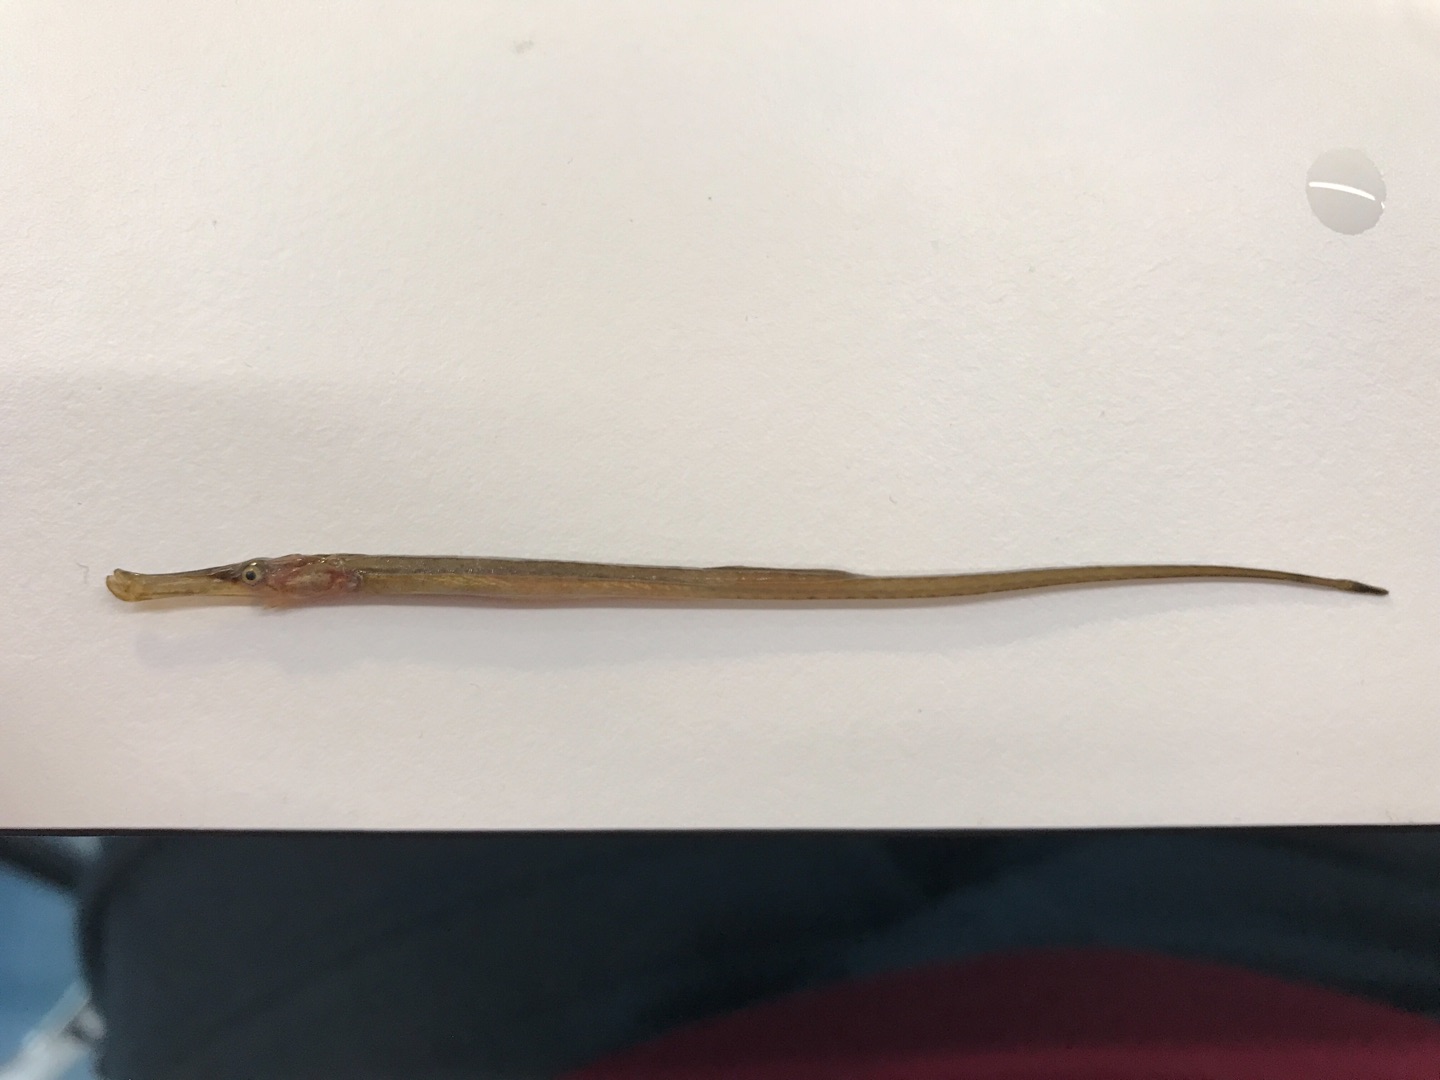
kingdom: Animalia
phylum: Chordata
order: Syngnathiformes
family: Syngnathidae
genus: Syngnathus
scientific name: Syngnathus typhle
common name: Almindelig tangnål
